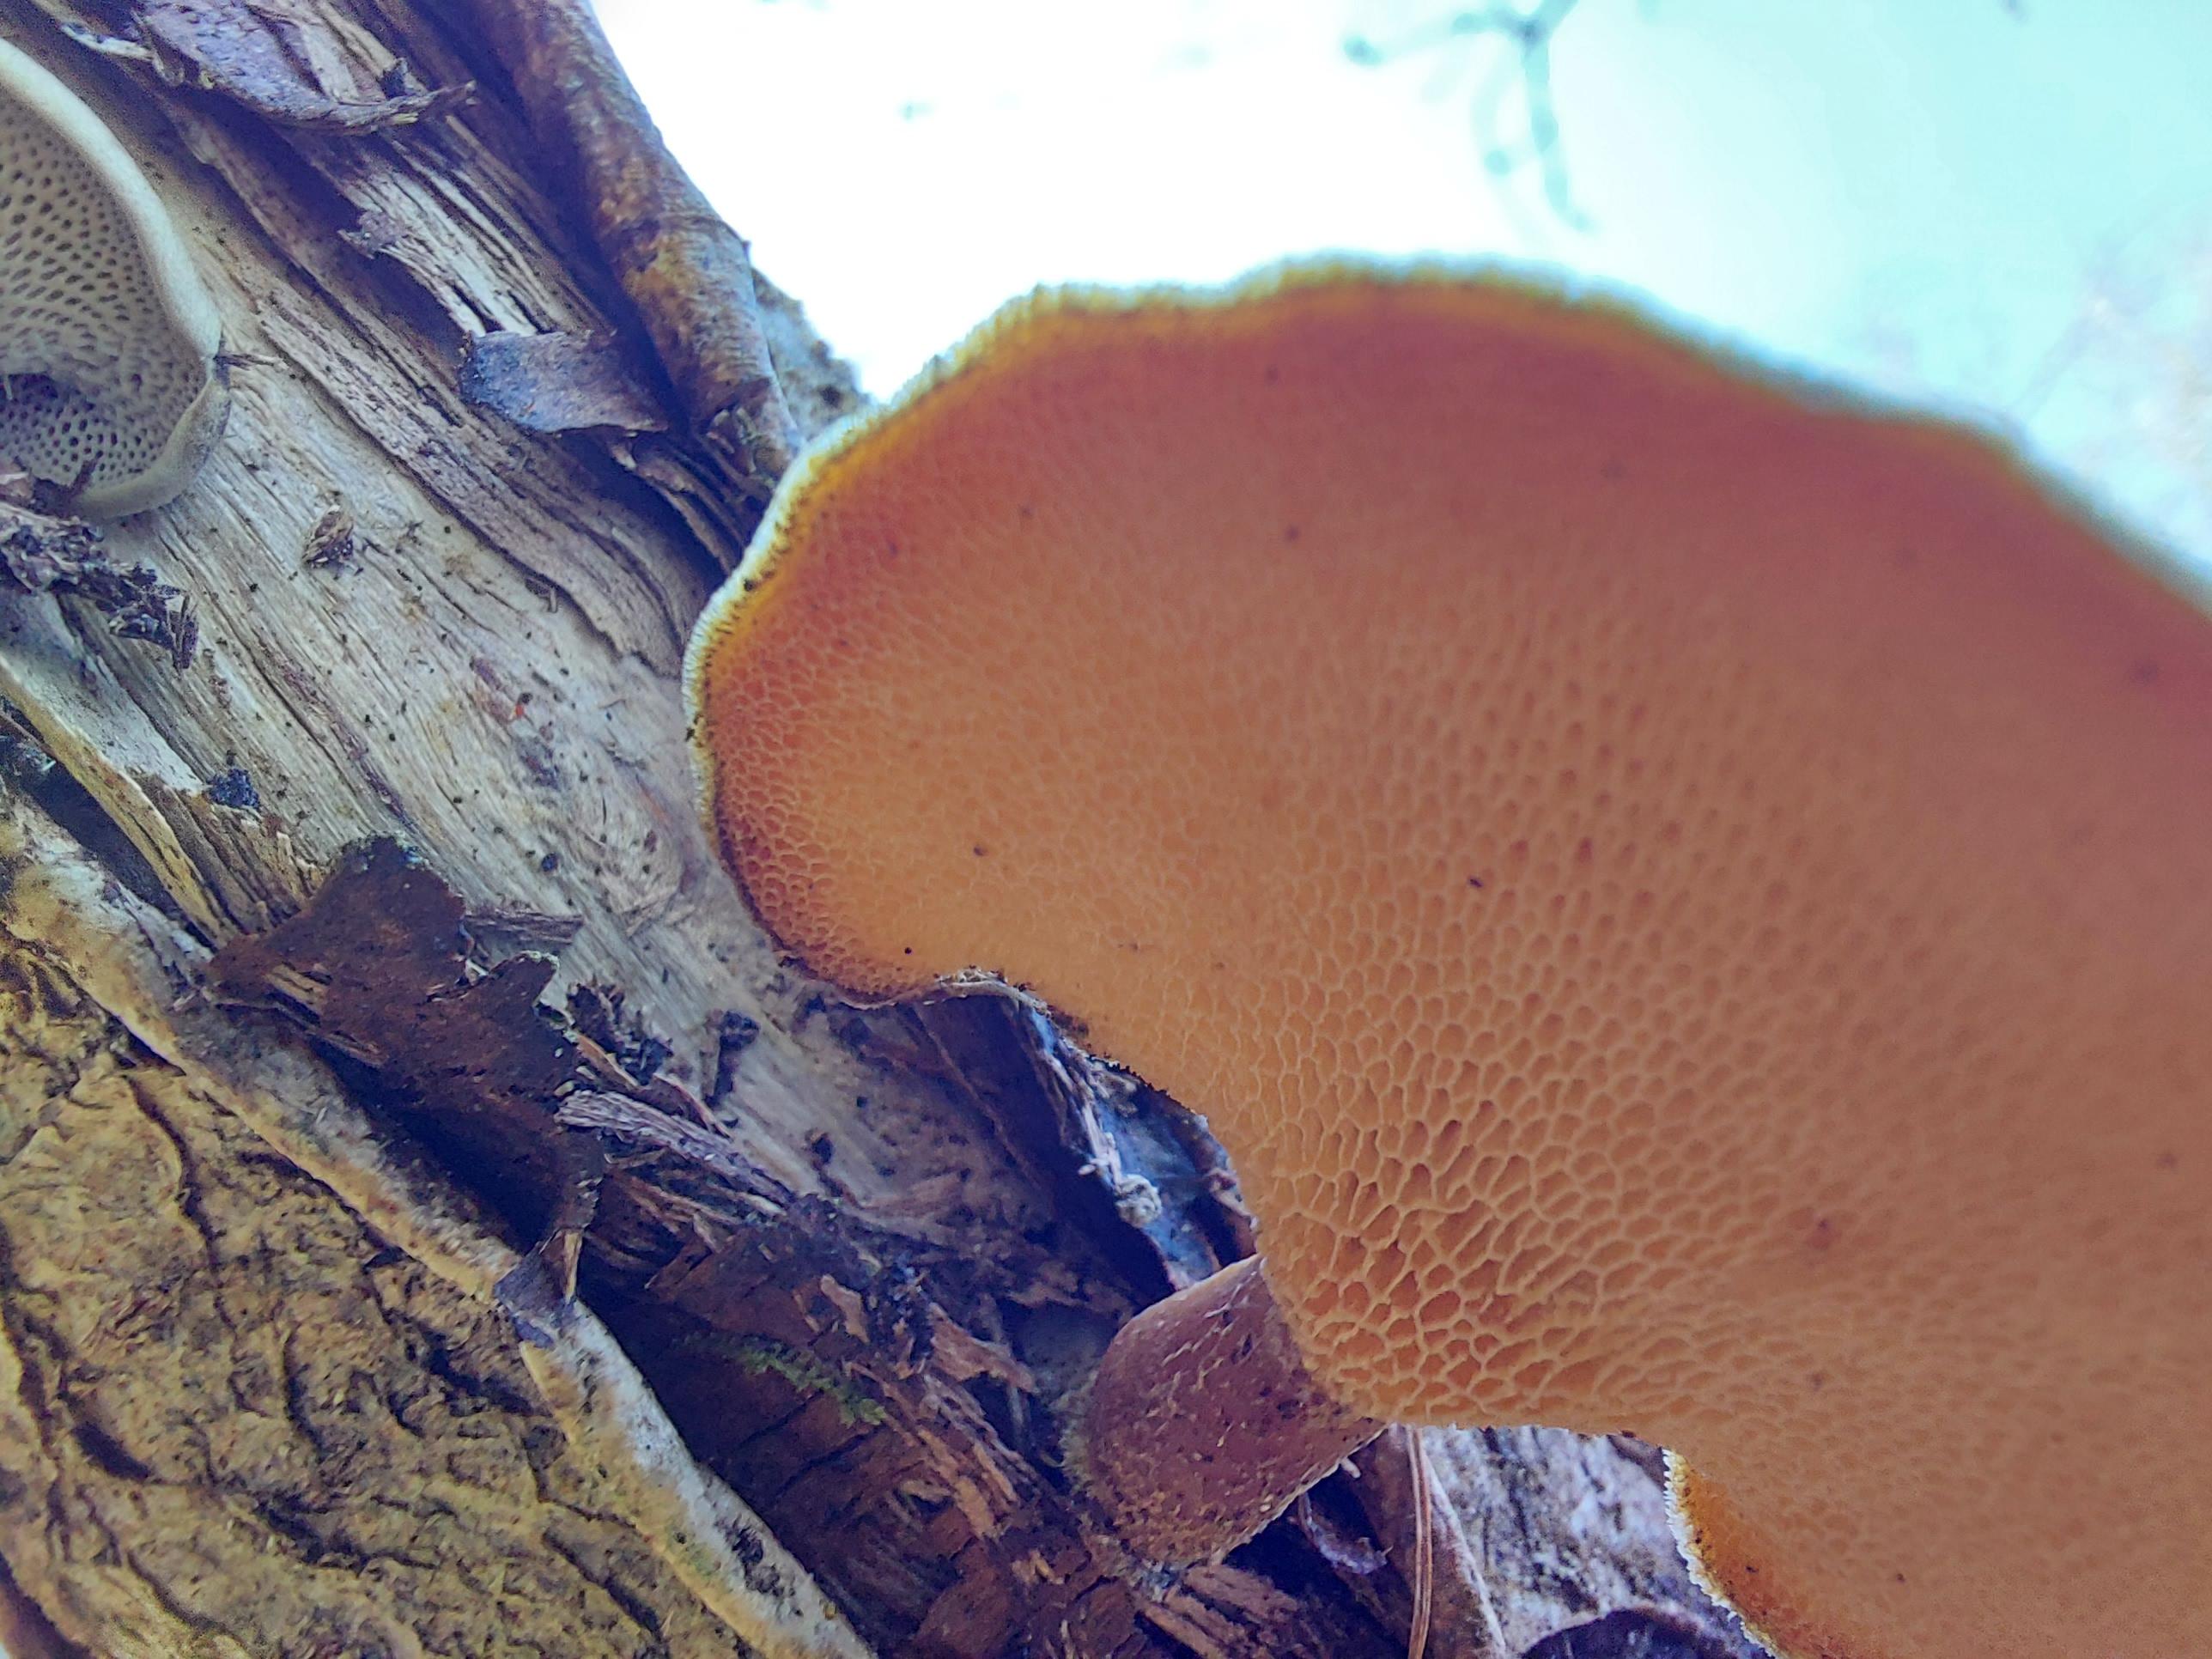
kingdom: Fungi
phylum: Basidiomycota
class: Agaricomycetes
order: Polyporales
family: Polyporaceae
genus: Lentinus
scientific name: Lentinus brumalis
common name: vinter-stilkporesvamp
